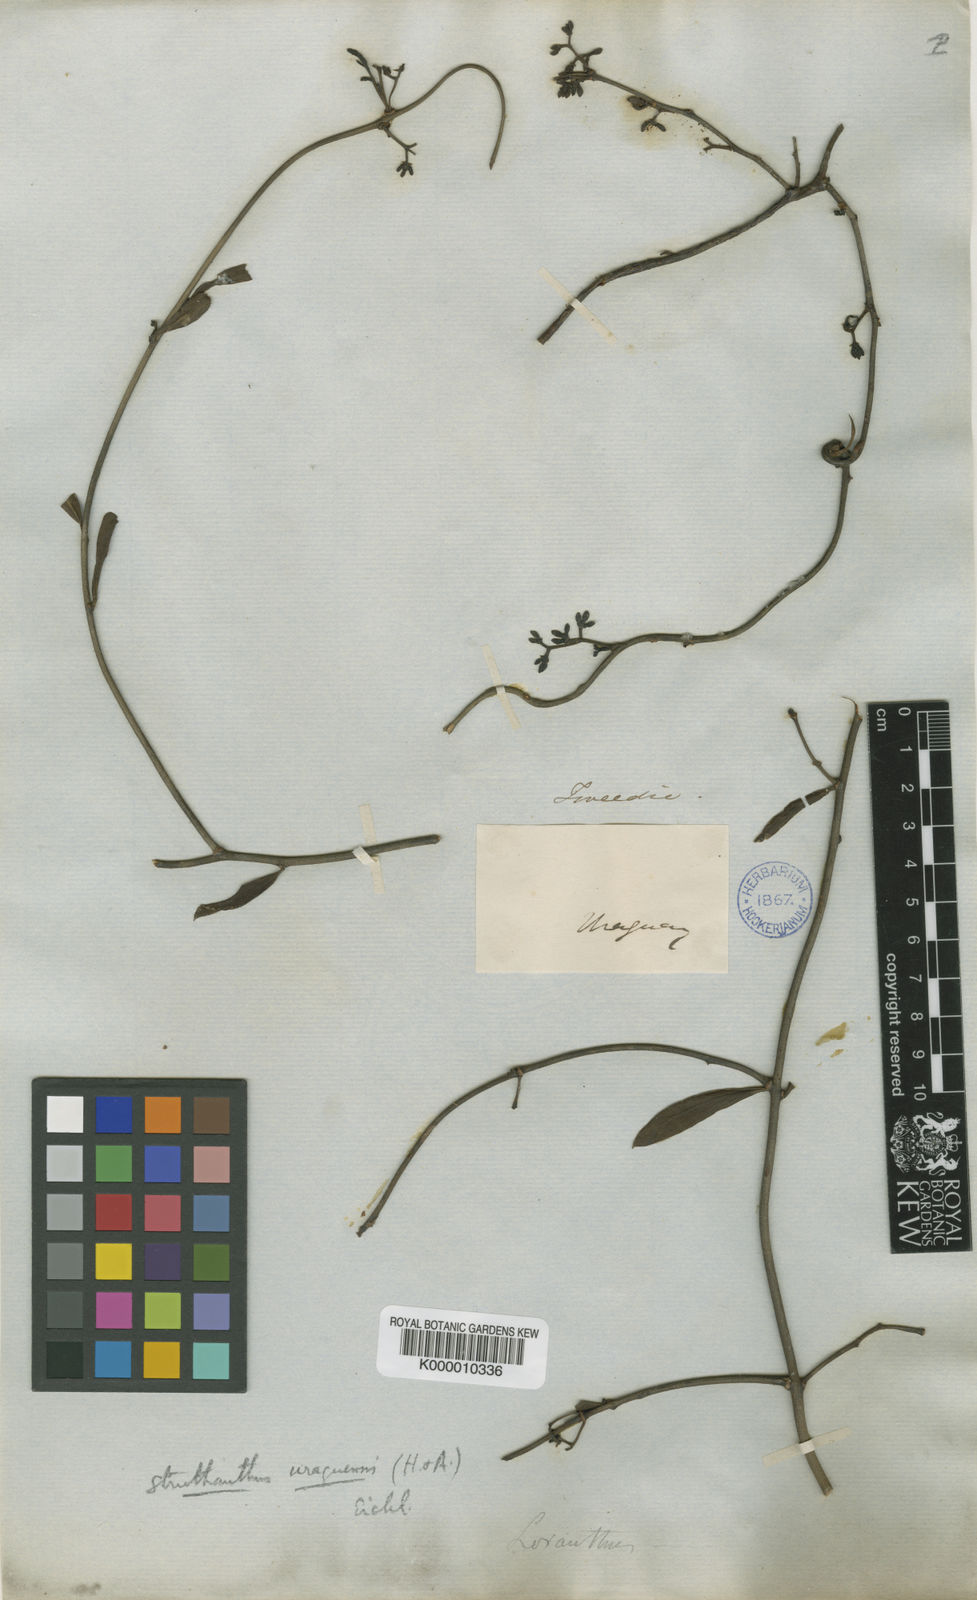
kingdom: Plantae
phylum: Tracheophyta
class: Magnoliopsida
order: Santalales
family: Loranthaceae
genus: Struthanthus
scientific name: Struthanthus
